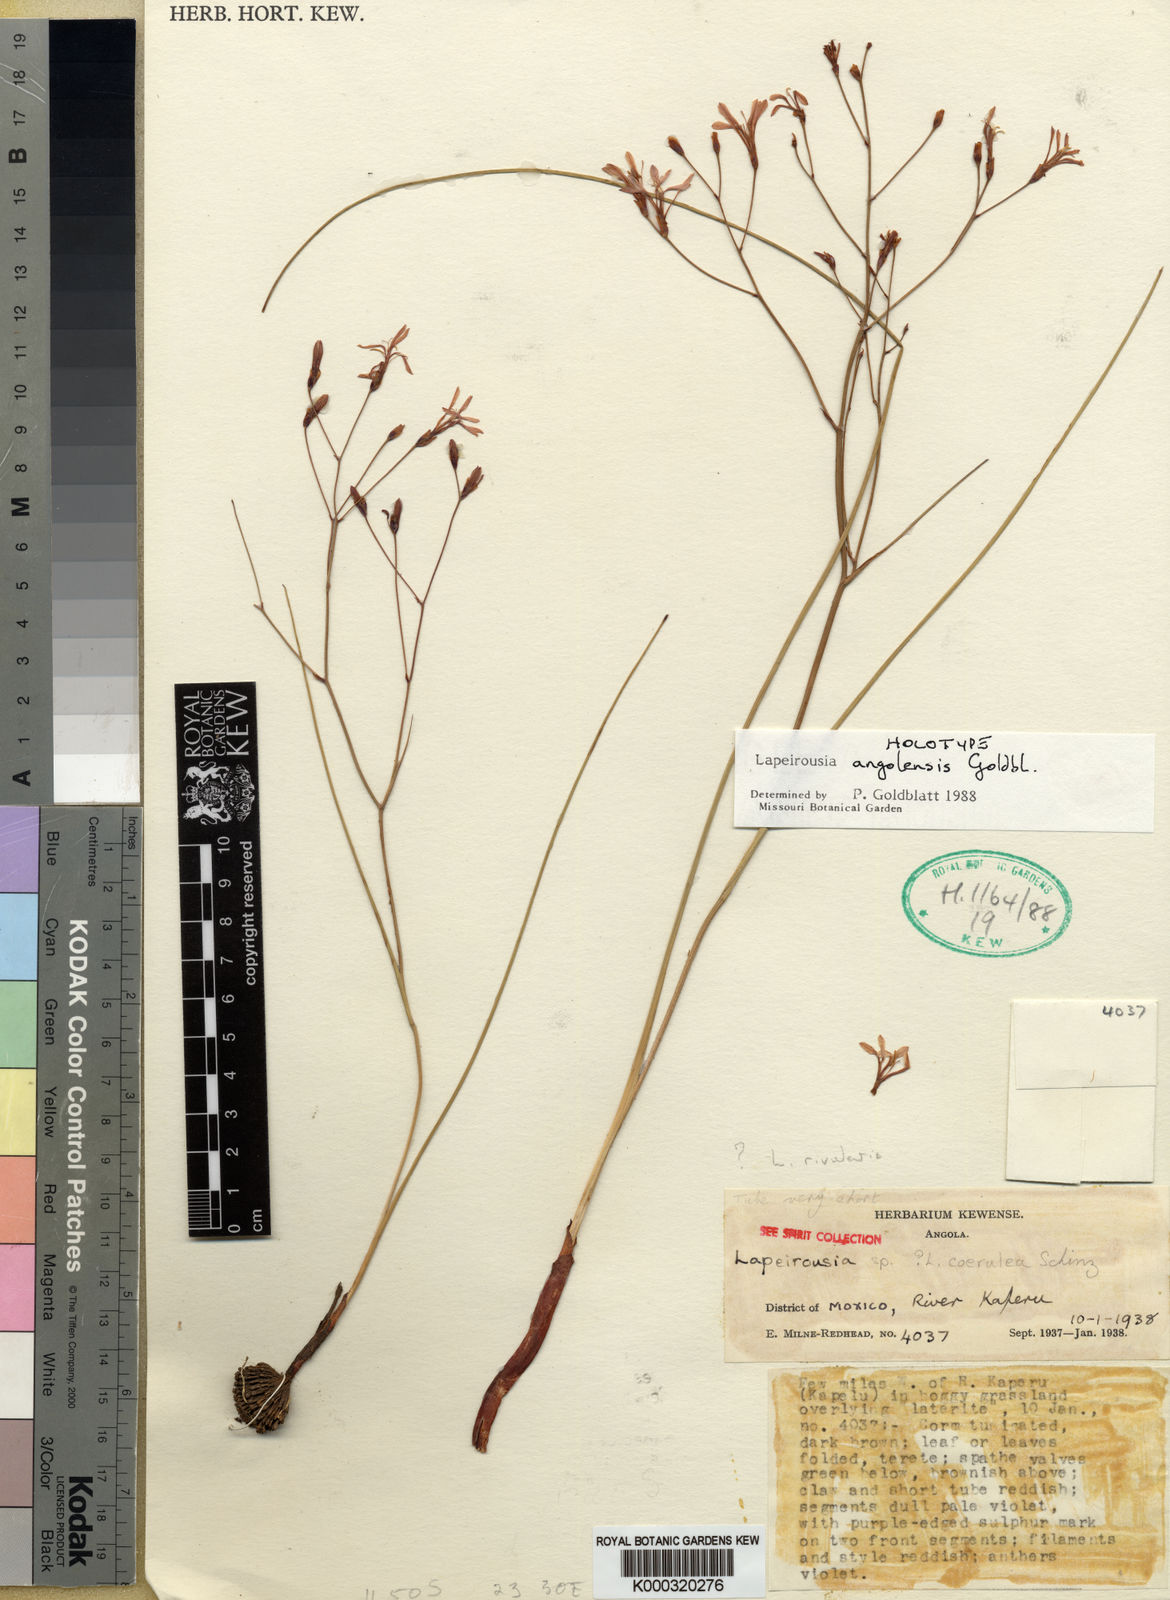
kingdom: Plantae
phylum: Tracheophyta
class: Liliopsida
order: Asparagales
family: Iridaceae
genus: Afrosolen
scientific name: Afrosolen zambesiacus
